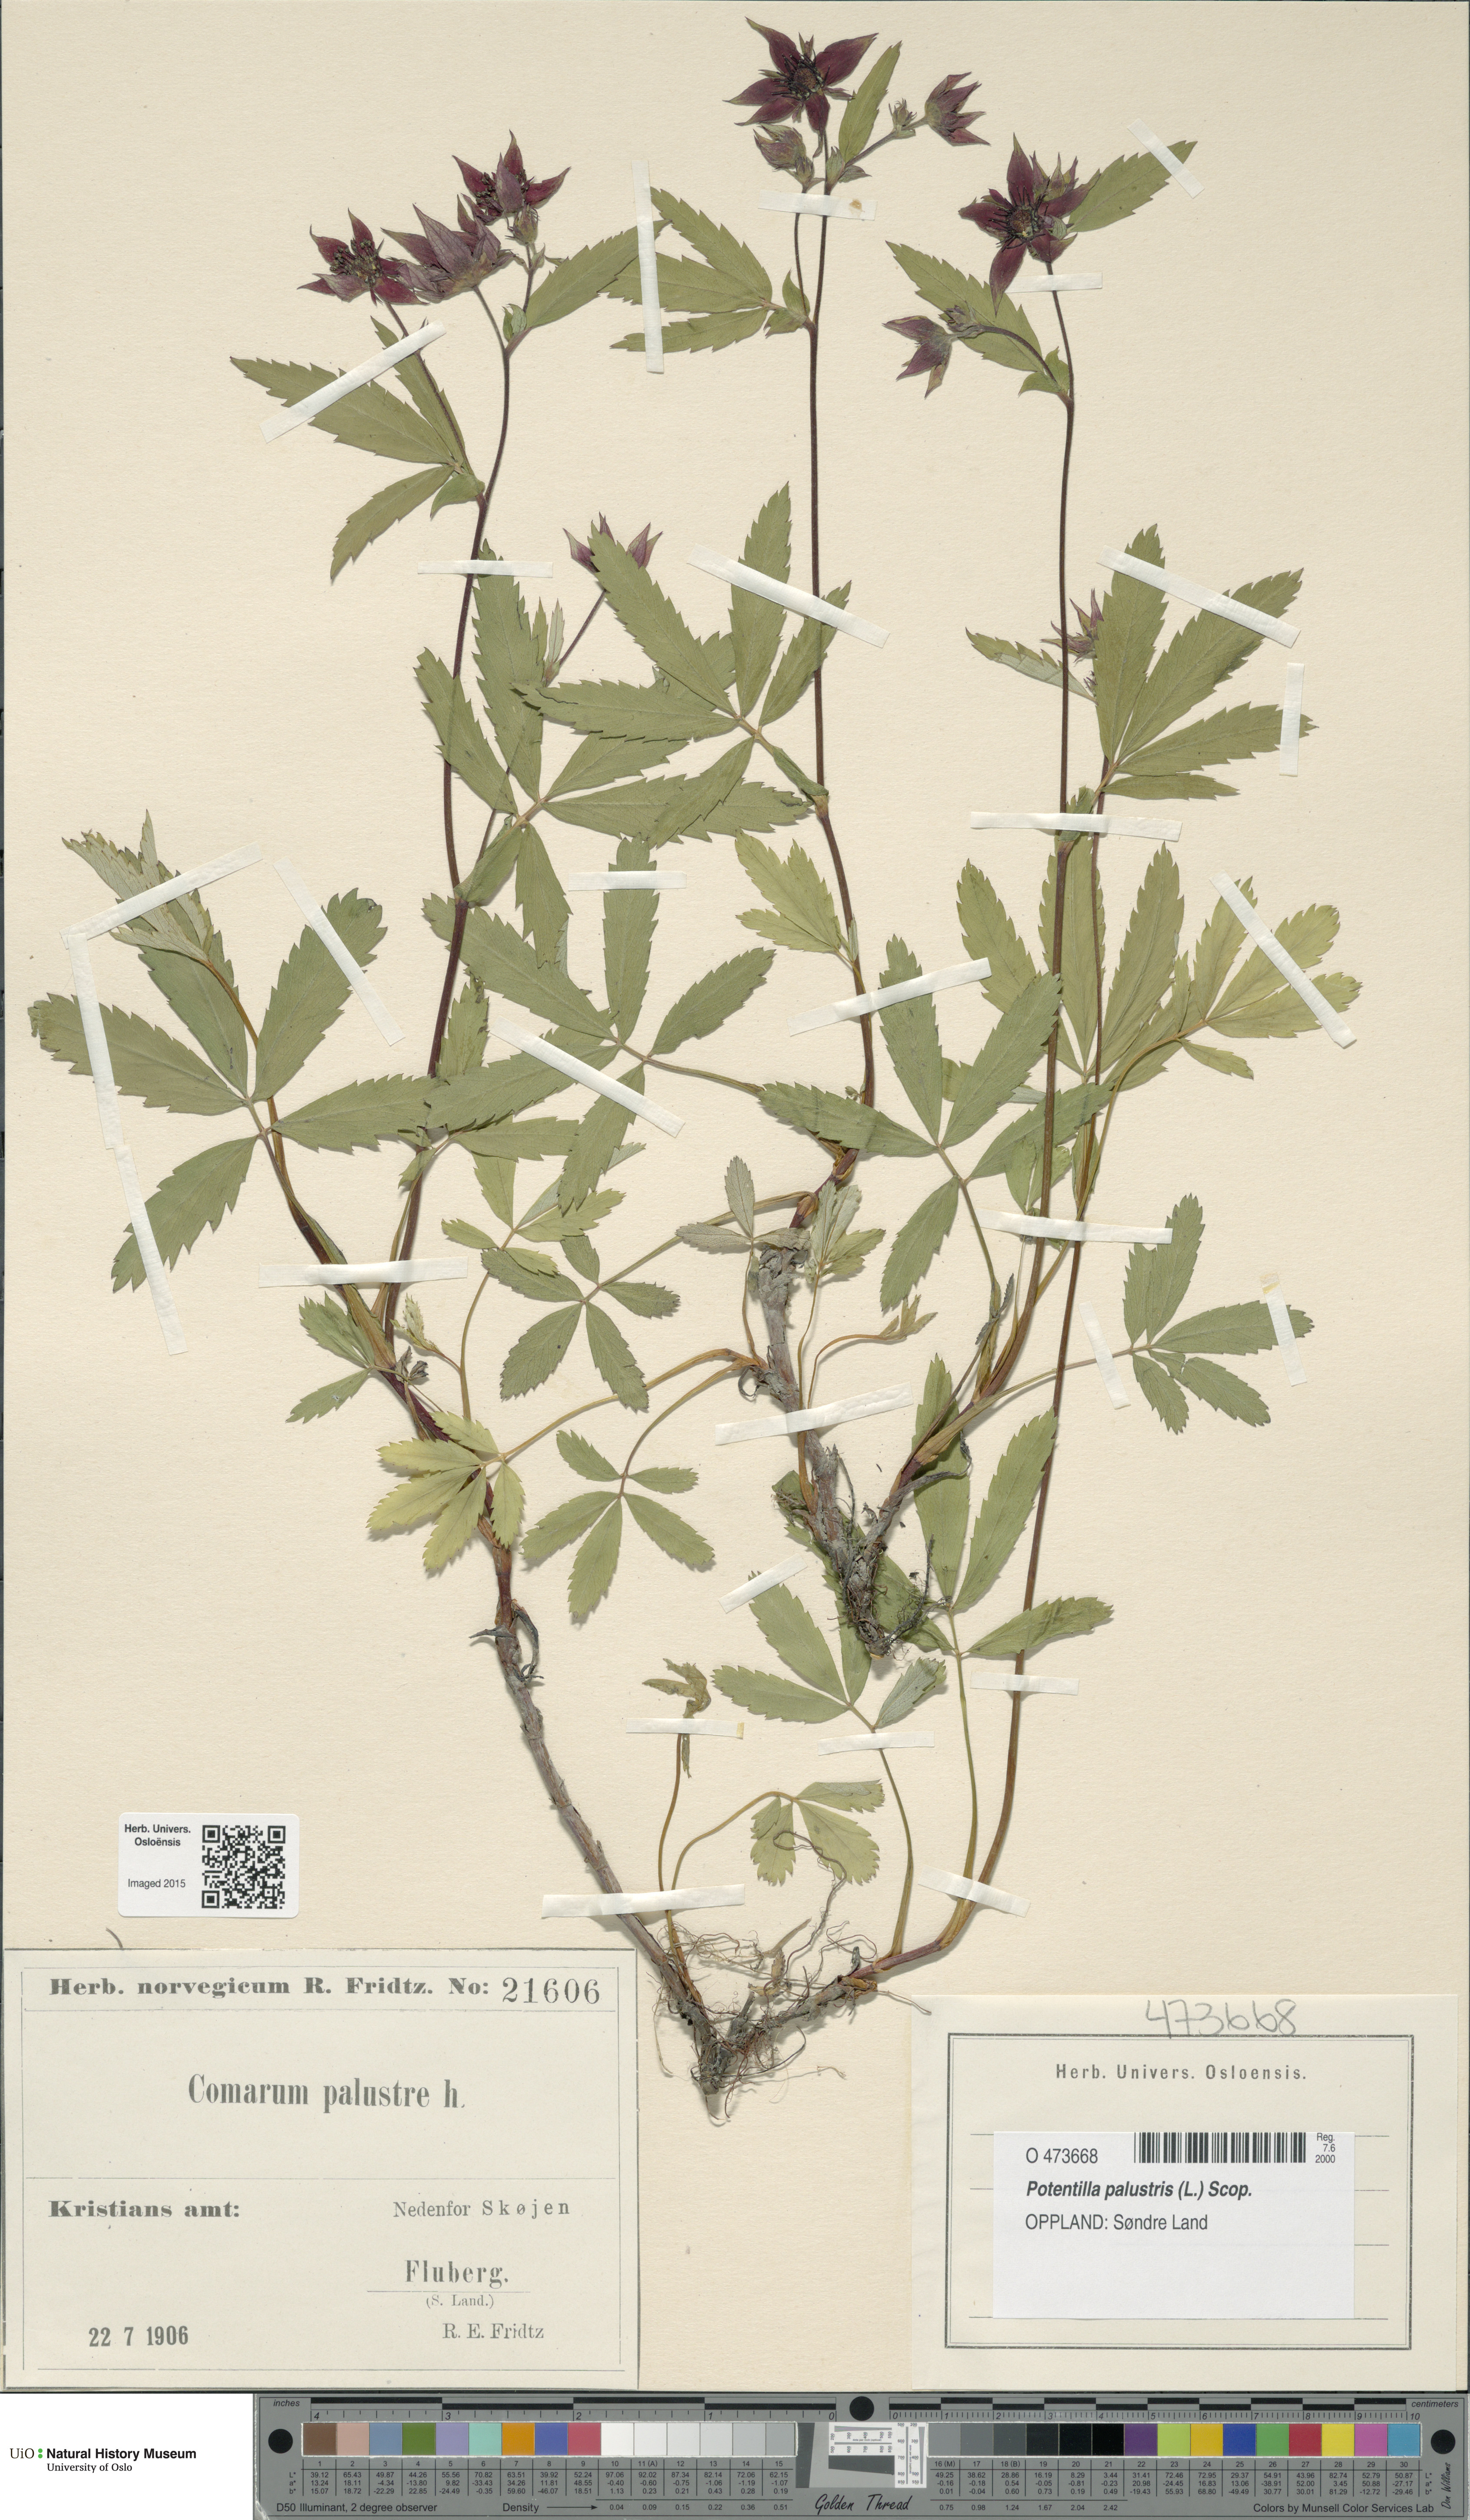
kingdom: Plantae
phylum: Tracheophyta
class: Magnoliopsida
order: Rosales
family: Rosaceae
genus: Comarum
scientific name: Comarum palustre
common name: Marsh cinquefoil
